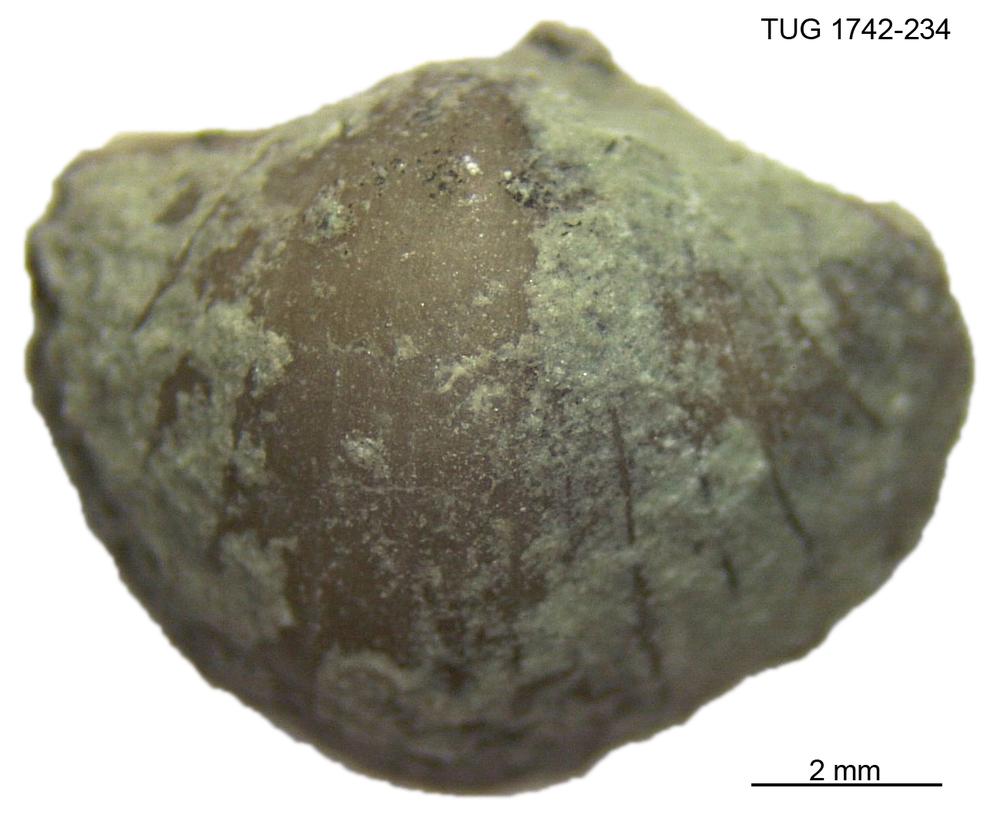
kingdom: Animalia
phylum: Brachiopoda
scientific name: Brachiopoda
